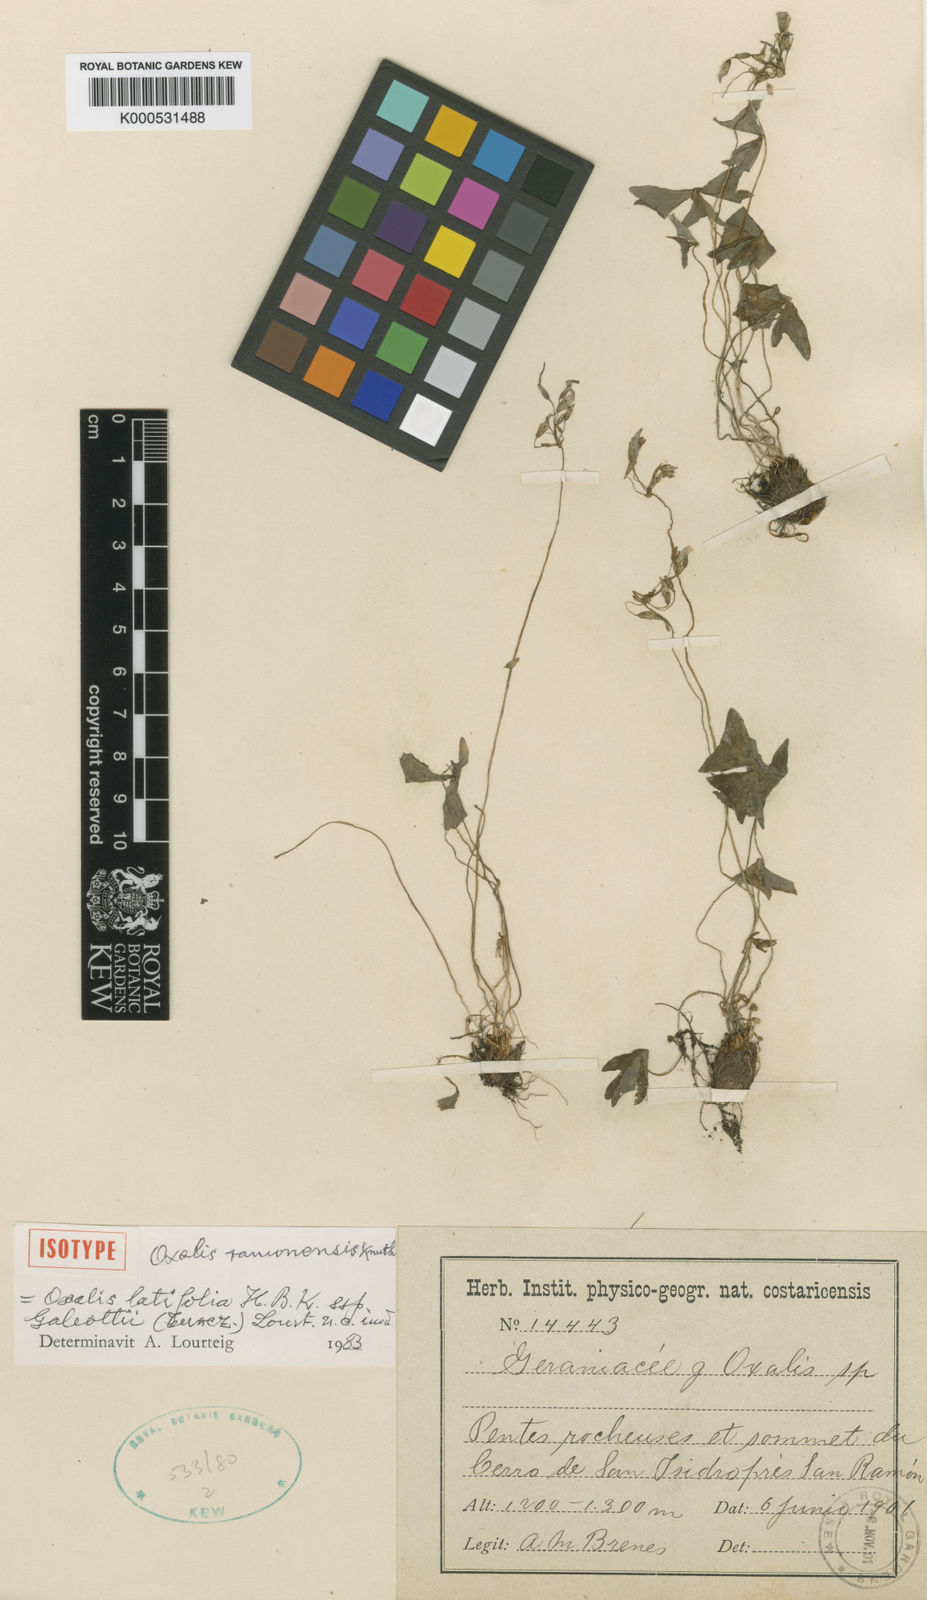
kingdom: Plantae
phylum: Tracheophyta
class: Magnoliopsida
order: Oxalidales
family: Oxalidaceae
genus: Oxalis
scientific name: Oxalis galeottii
